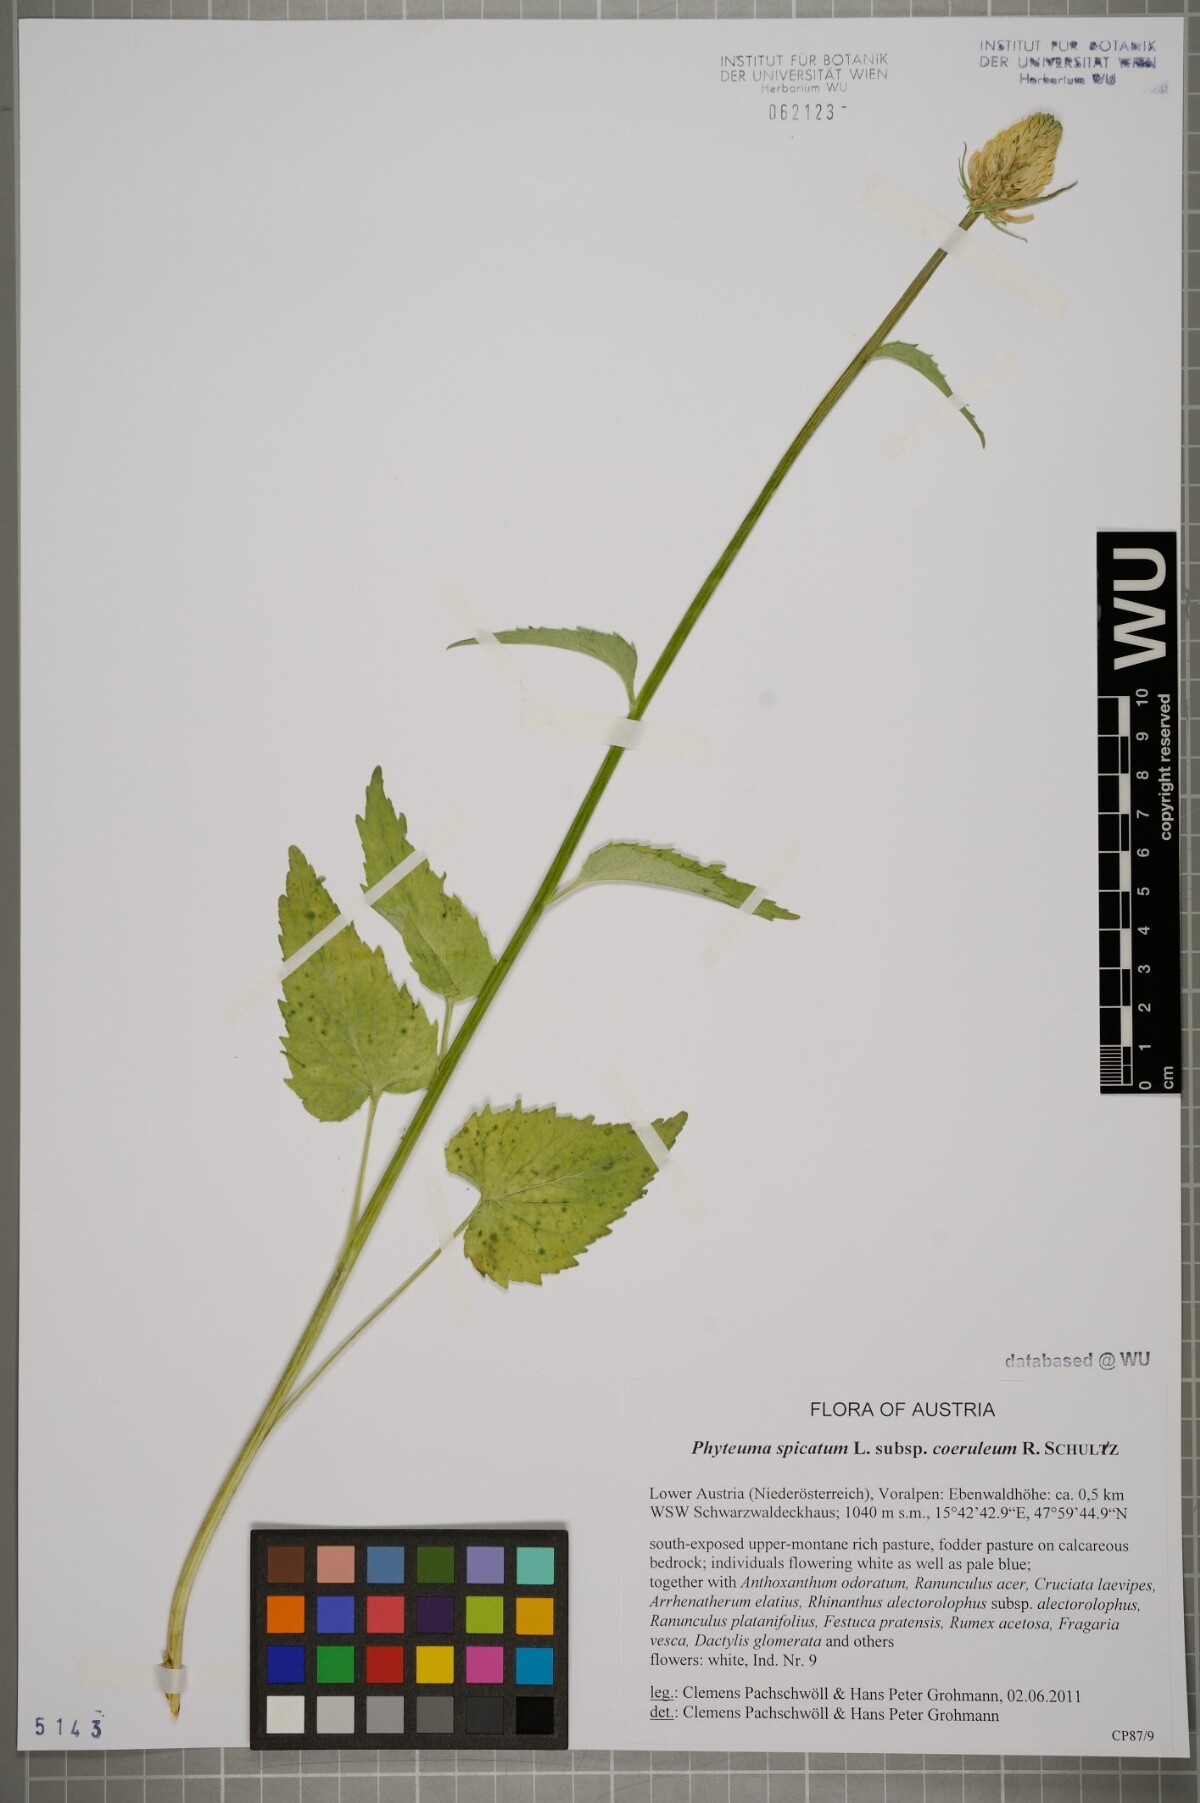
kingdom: Plantae
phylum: Tracheophyta
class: Magnoliopsida
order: Asterales
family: Campanulaceae
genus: Phyteuma
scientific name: Phyteuma spicatum
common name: Spiked rampion
